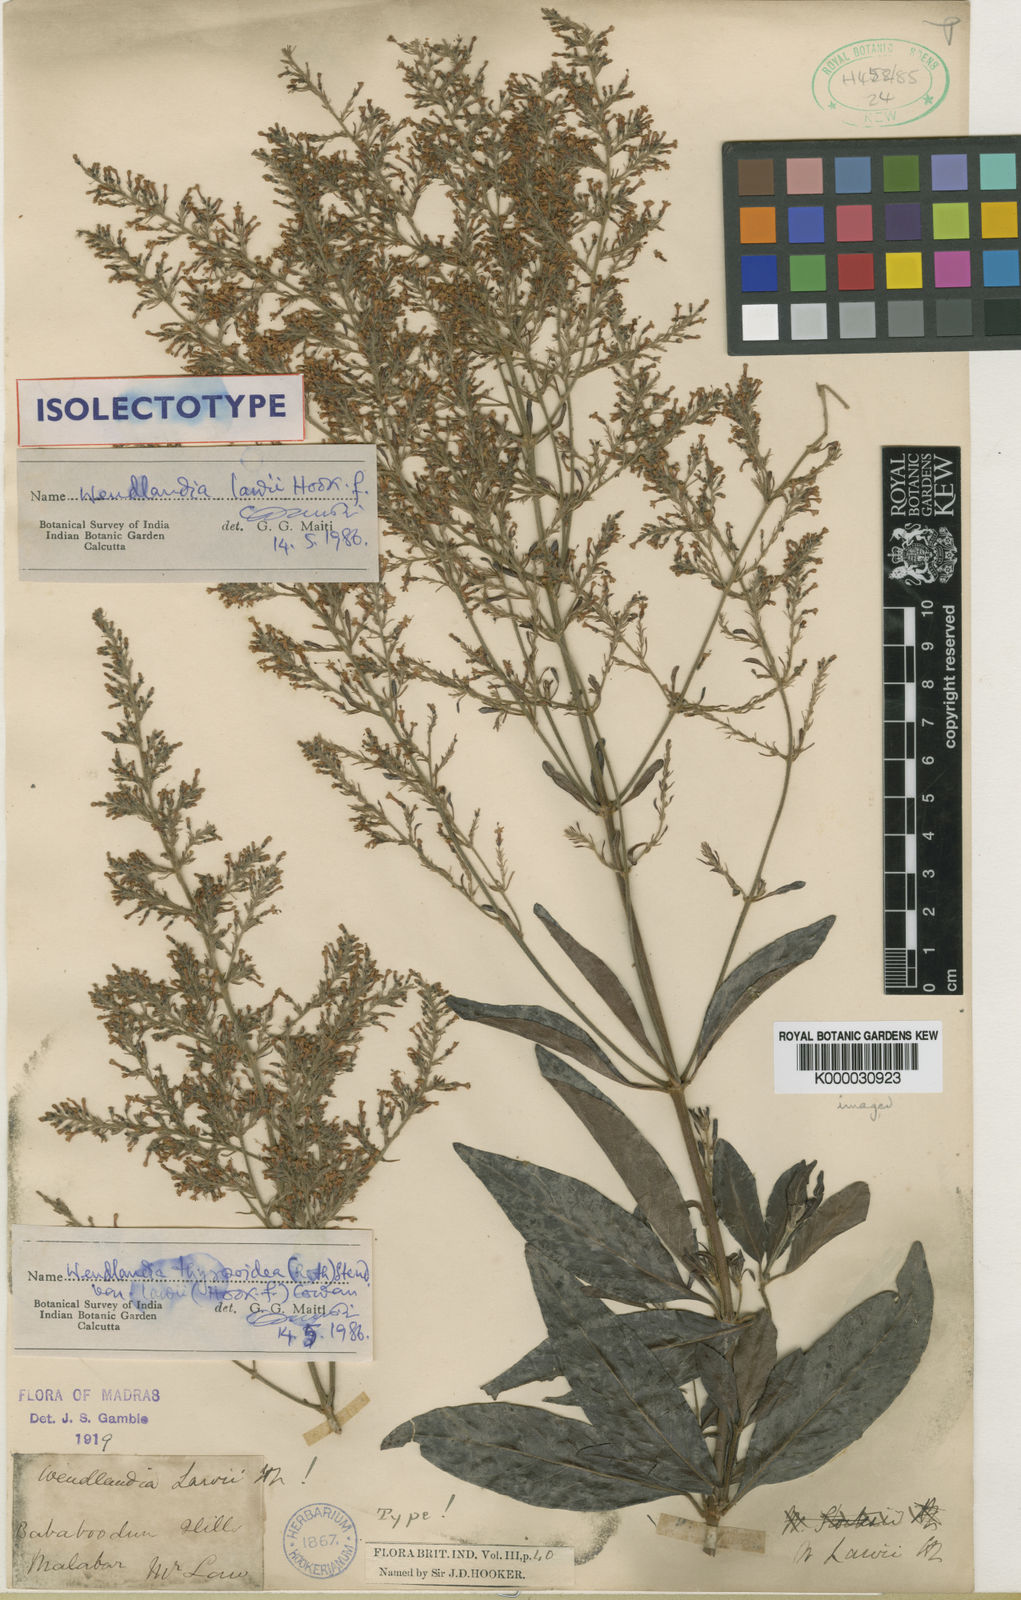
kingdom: Plantae
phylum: Tracheophyta
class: Magnoliopsida
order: Gentianales
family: Rubiaceae
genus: Wendlandia
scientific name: Wendlandia thyrsoidea
